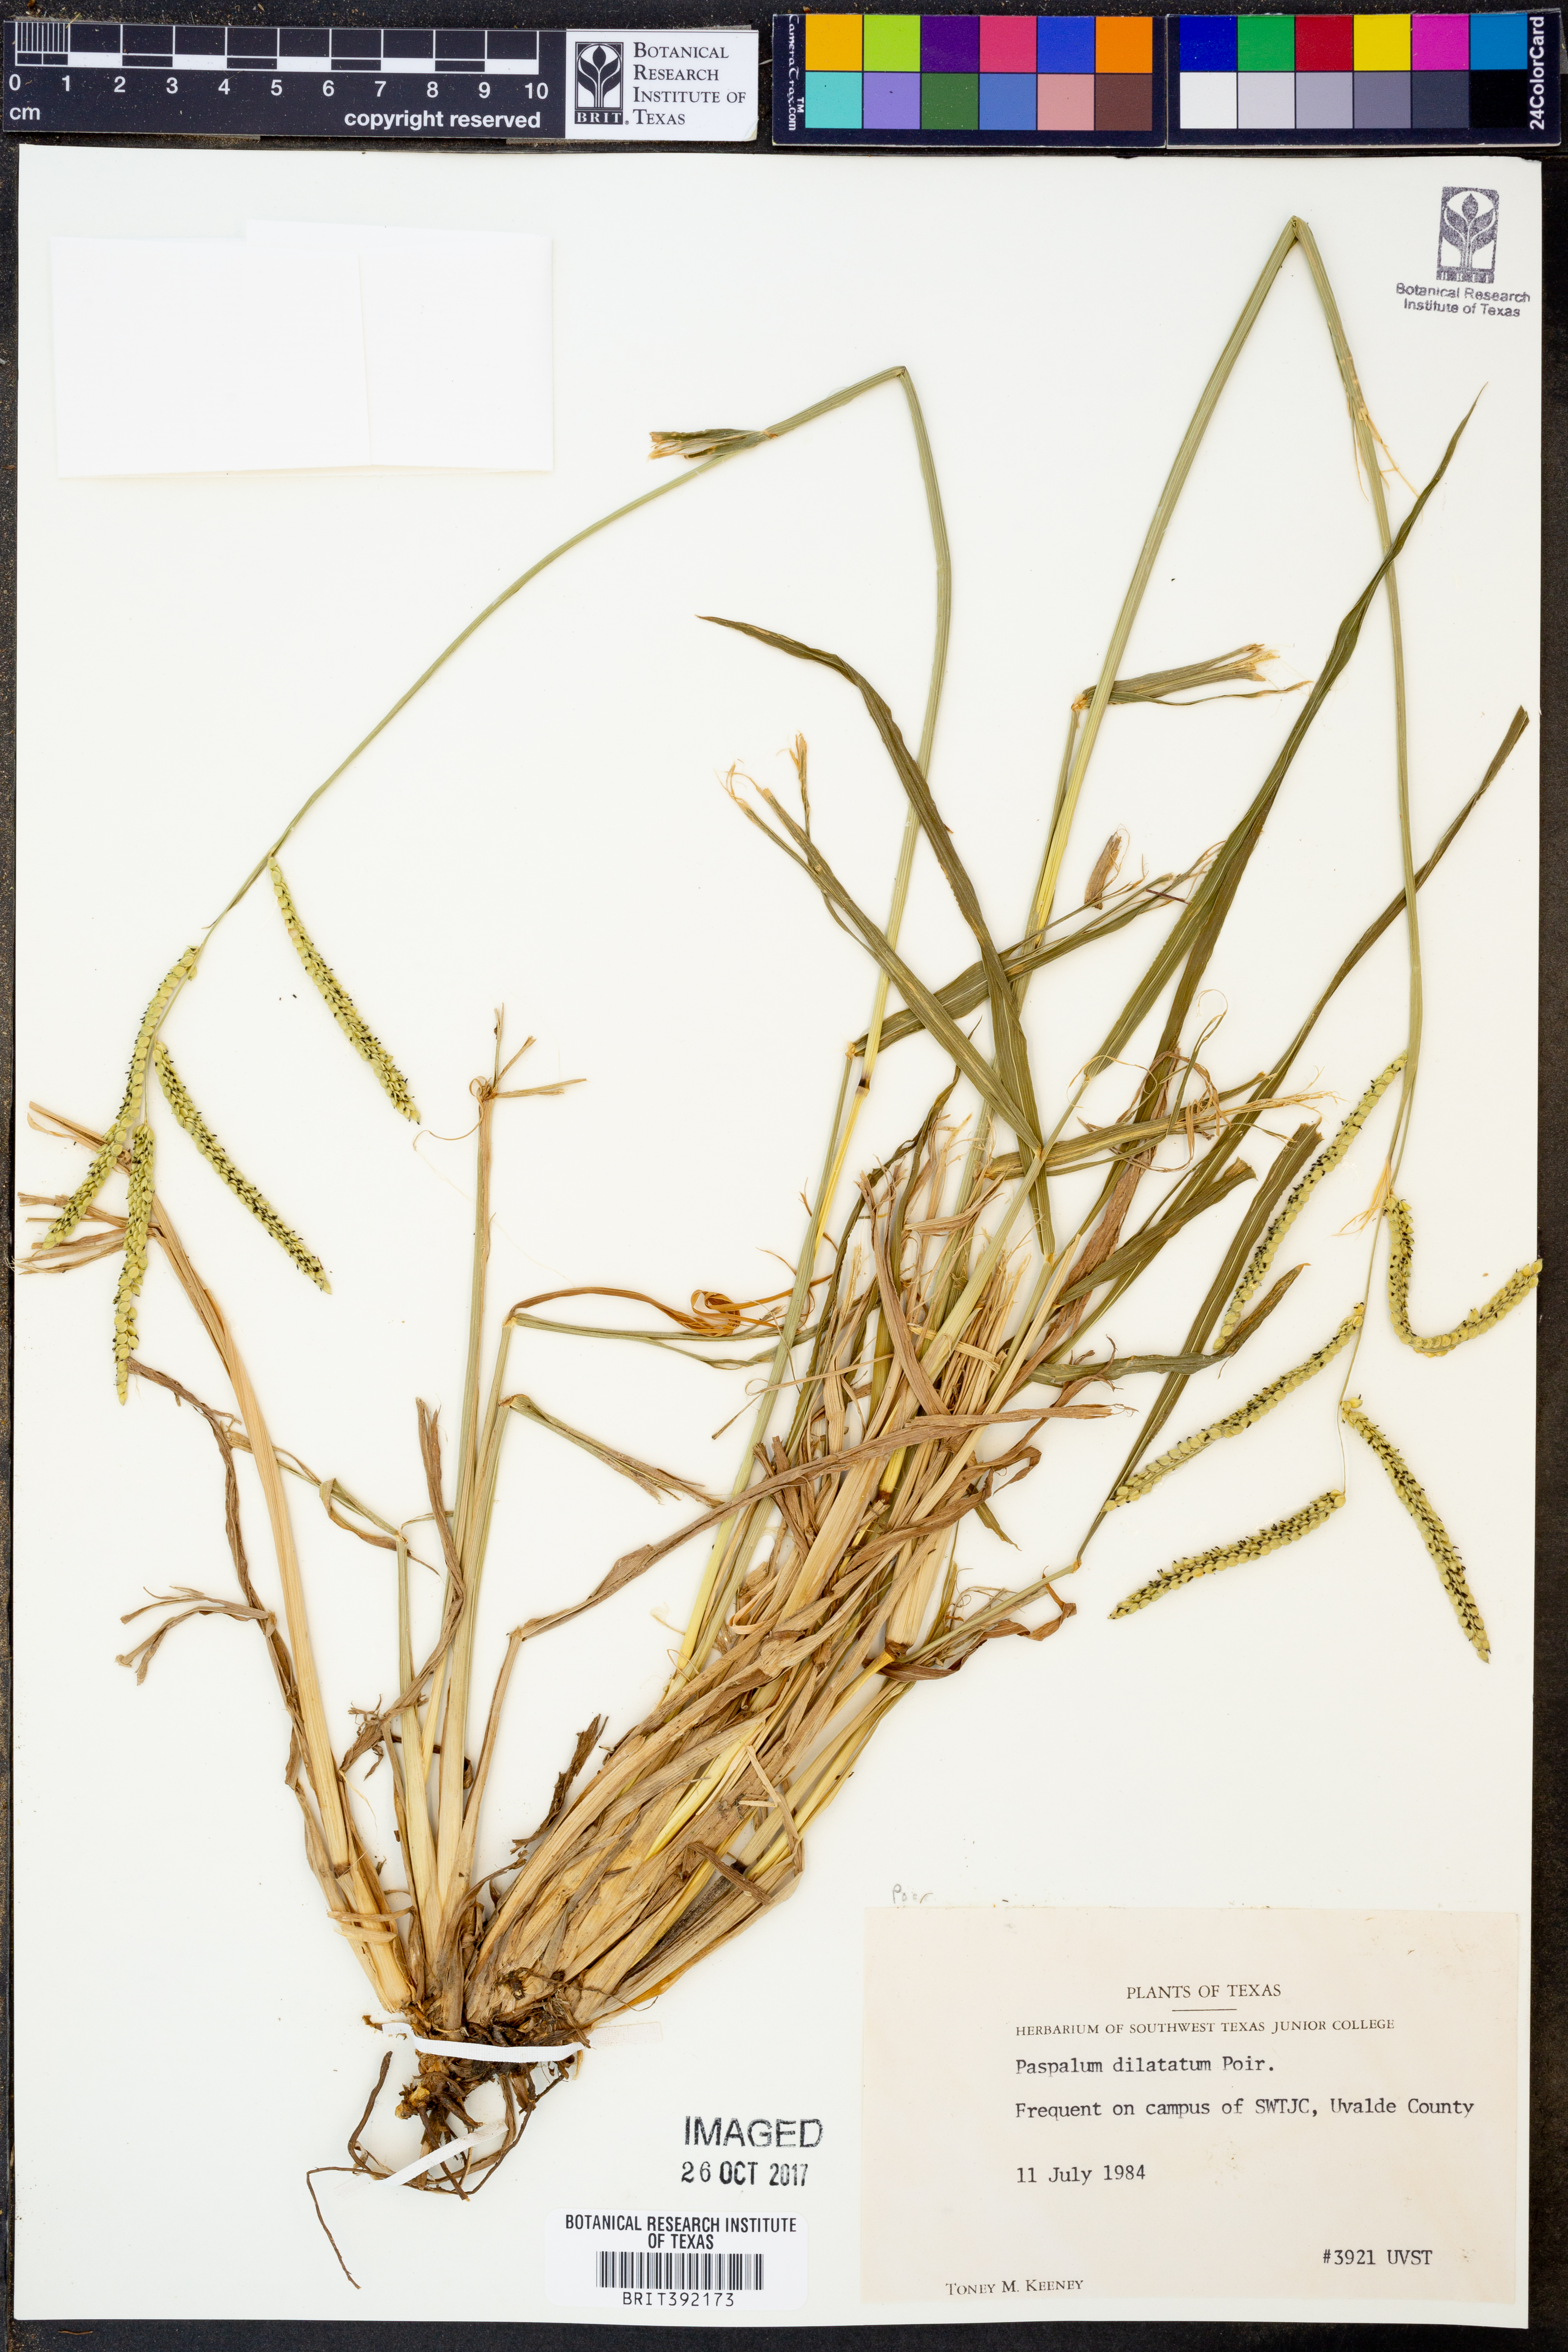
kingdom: Plantae
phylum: Tracheophyta
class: Liliopsida
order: Poales
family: Poaceae
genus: Paspalum
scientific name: Paspalum dilatatum
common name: Dallisgrass
